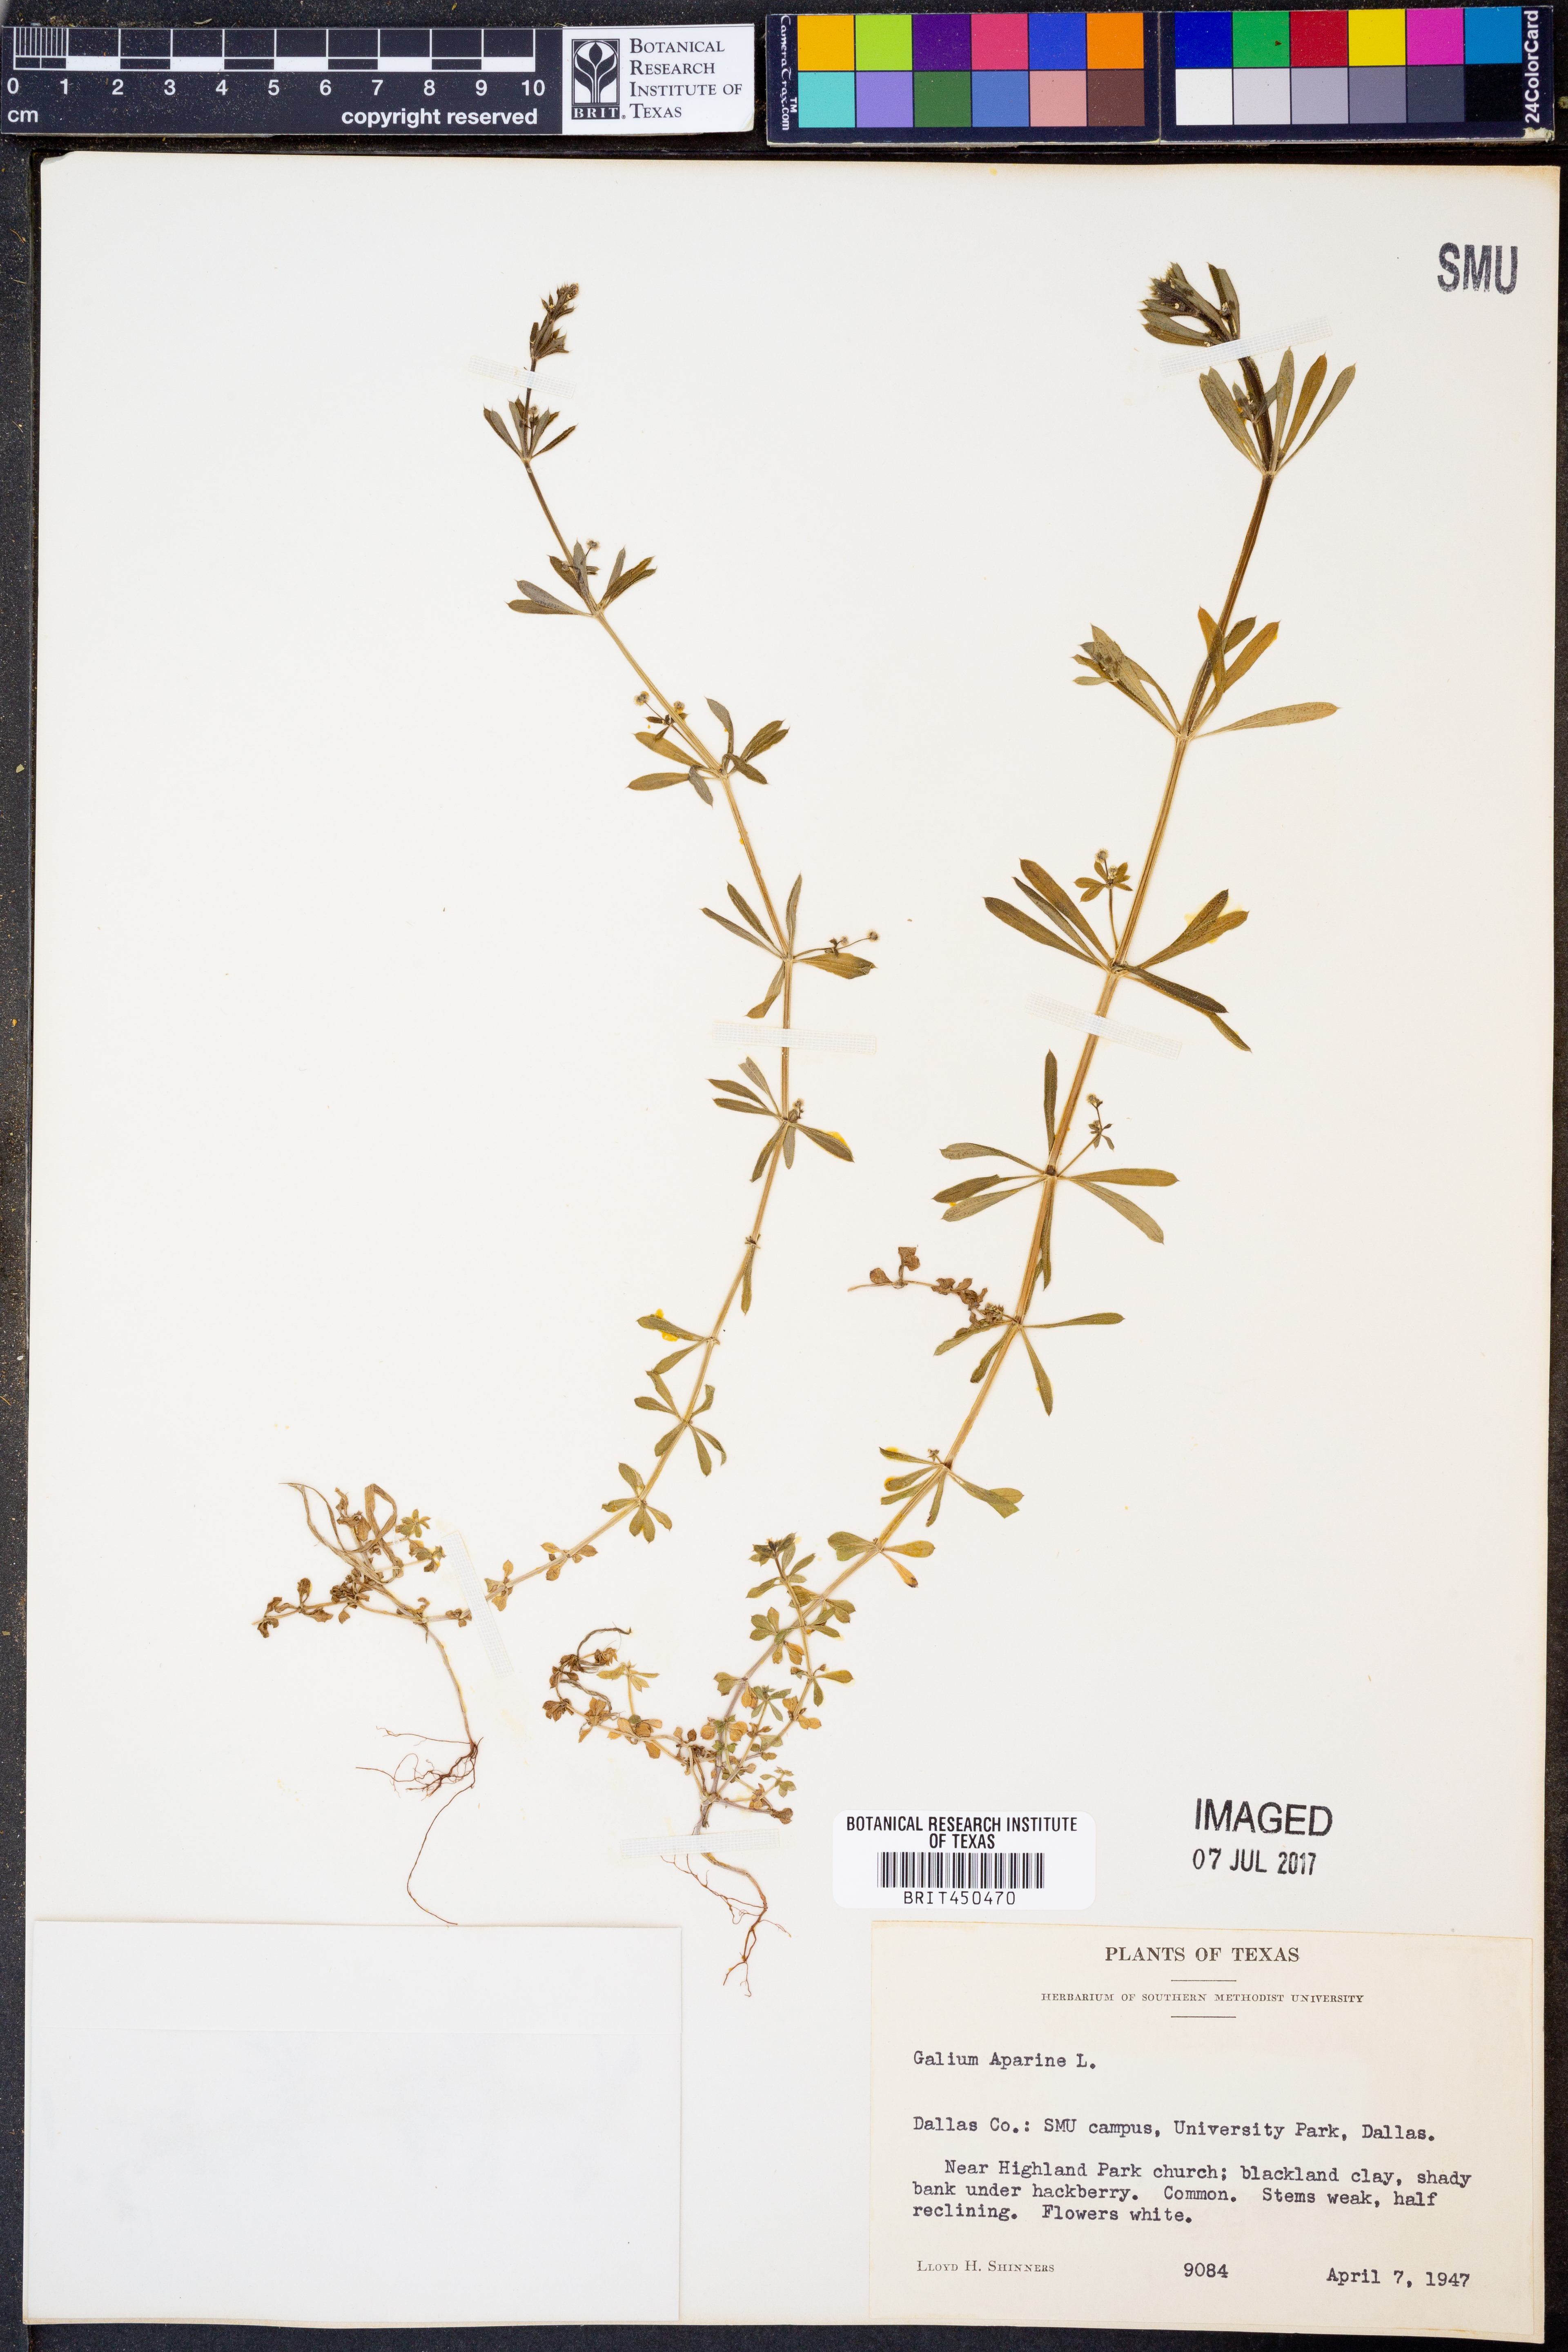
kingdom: Plantae
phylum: Tracheophyta
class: Magnoliopsida
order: Gentianales
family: Rubiaceae
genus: Galium
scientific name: Galium aparine
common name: Cleavers
